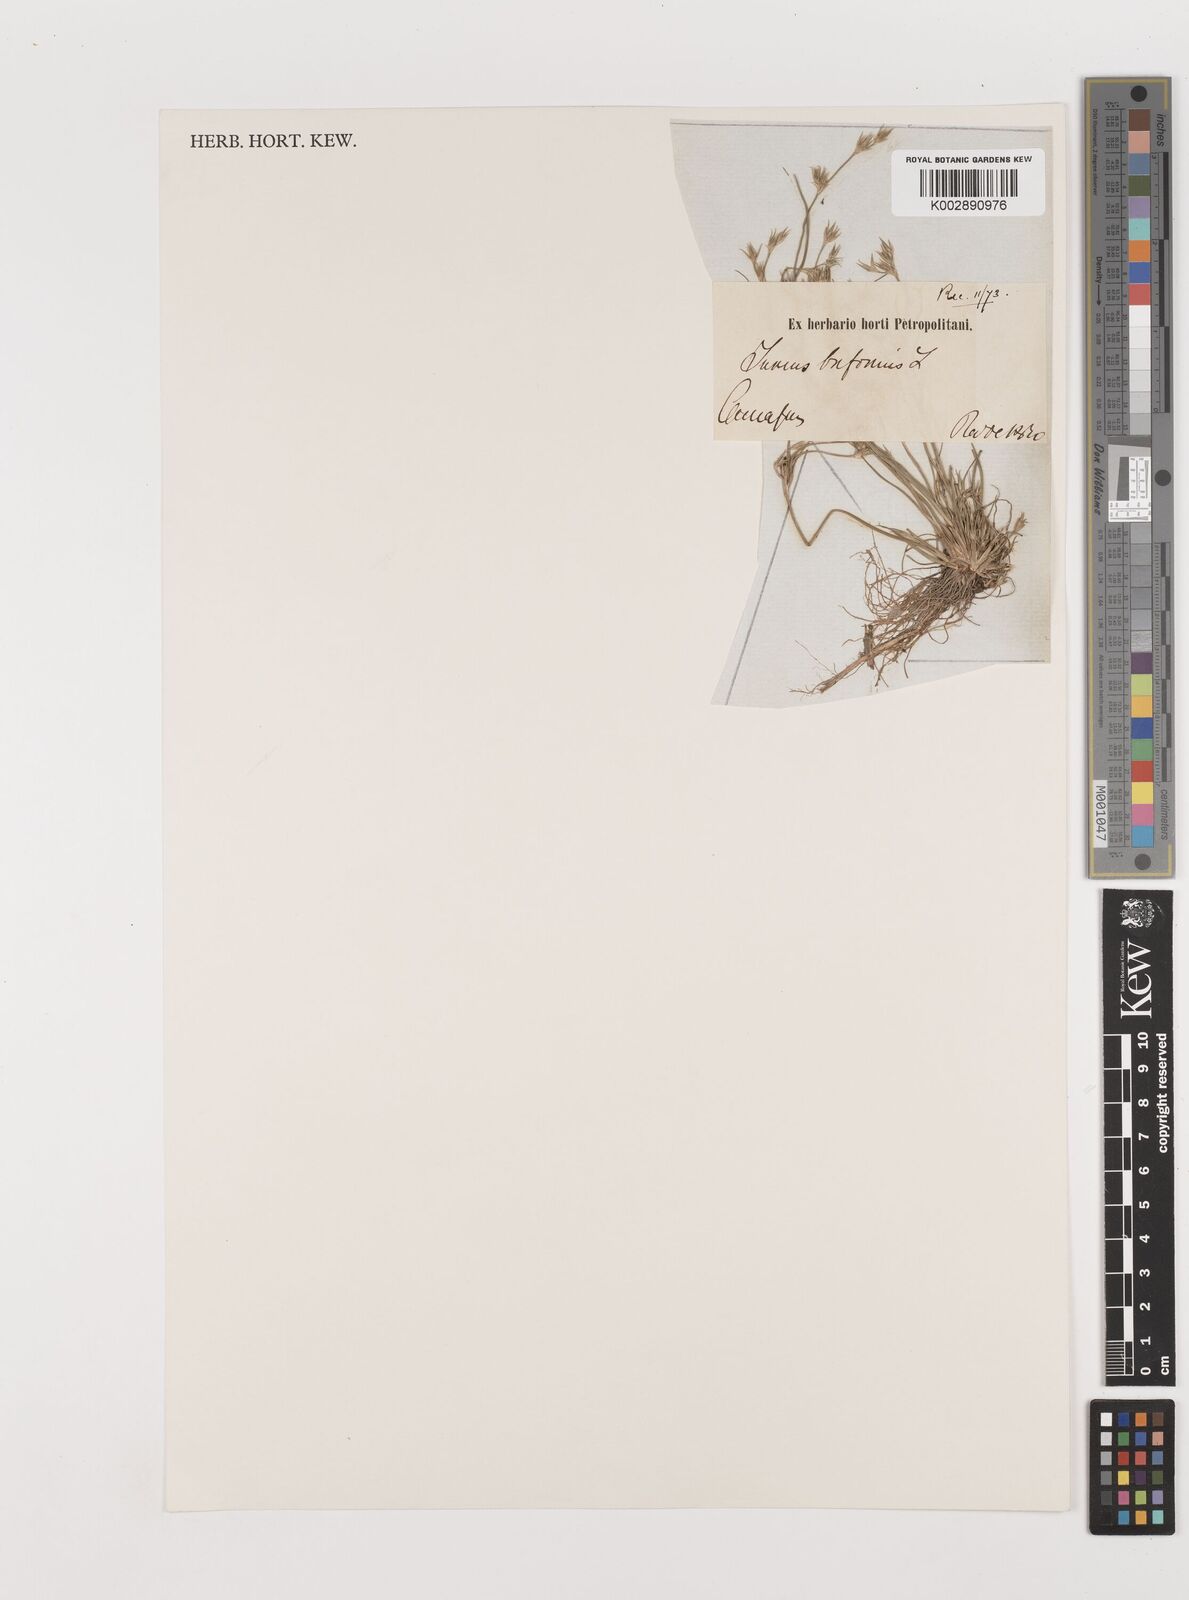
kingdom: Plantae
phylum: Tracheophyta
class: Liliopsida
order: Poales
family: Juncaceae
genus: Juncus
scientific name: Juncus bufonius
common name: Toad rush
